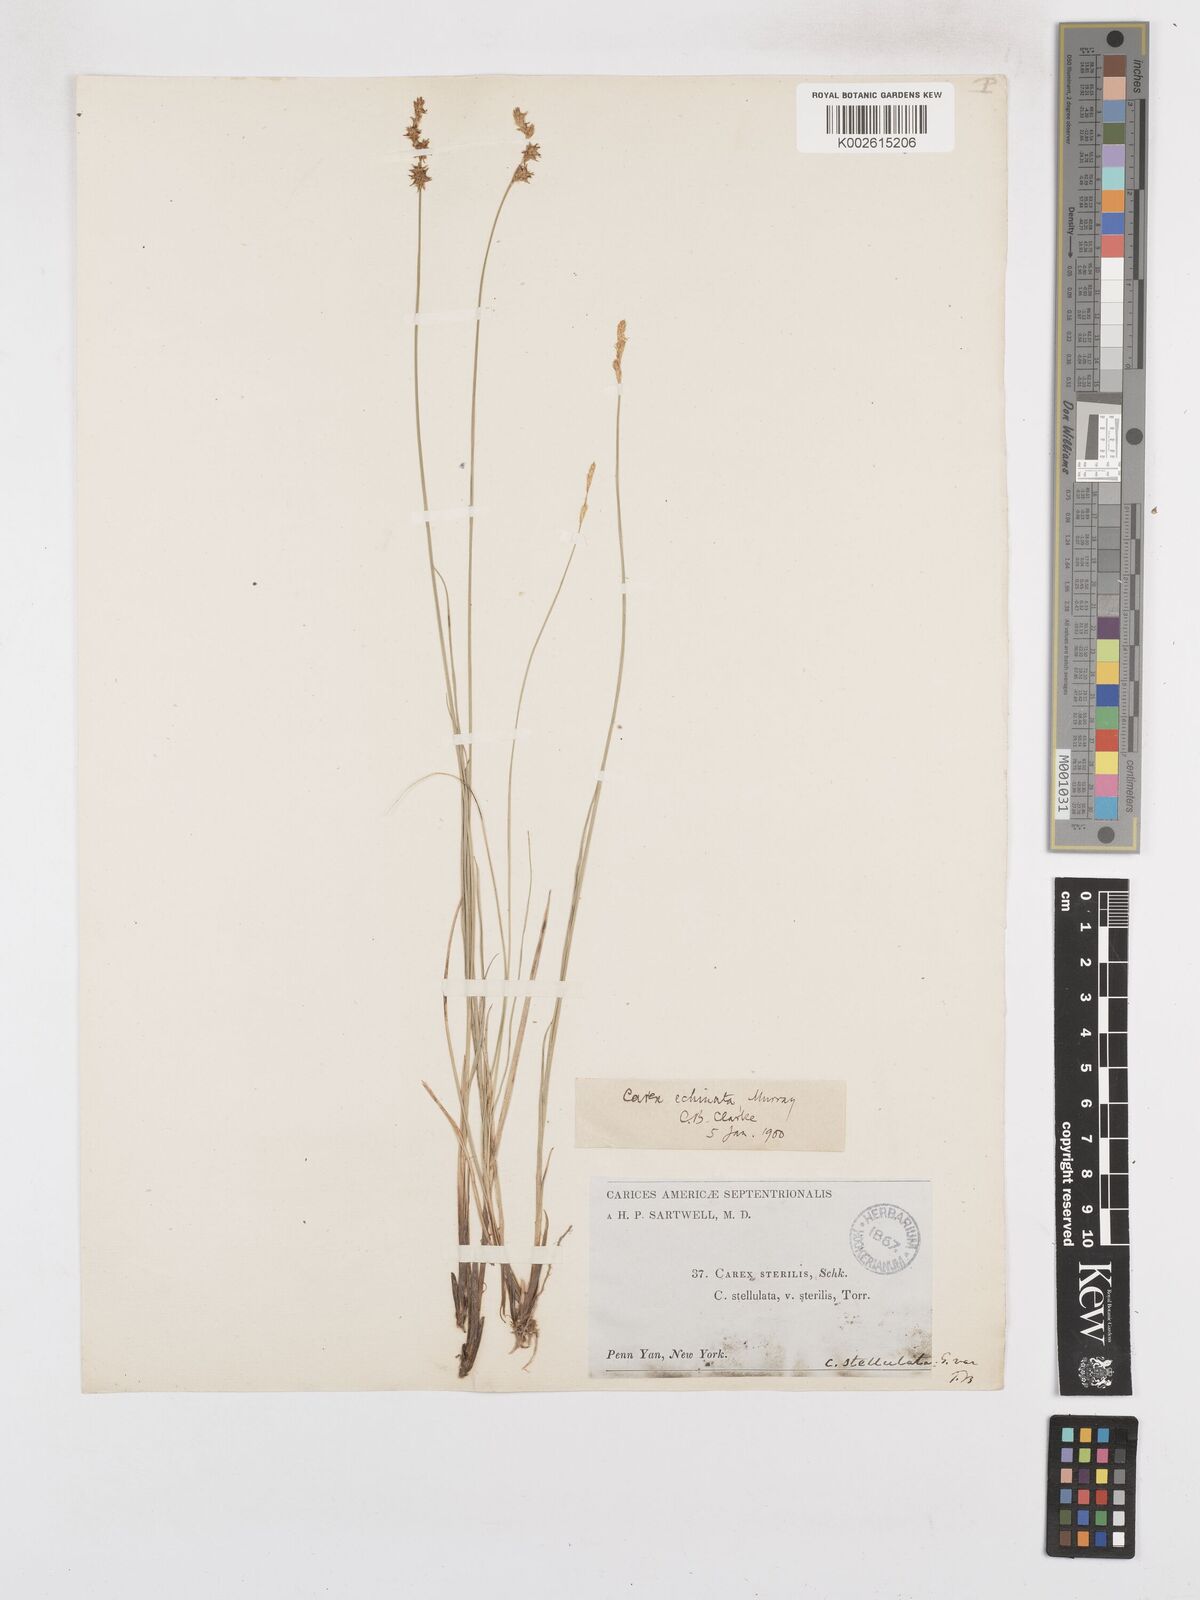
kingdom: Plantae
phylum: Tracheophyta
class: Liliopsida
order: Poales
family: Cyperaceae
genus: Carex
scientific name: Carex echinata
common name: Star sedge
